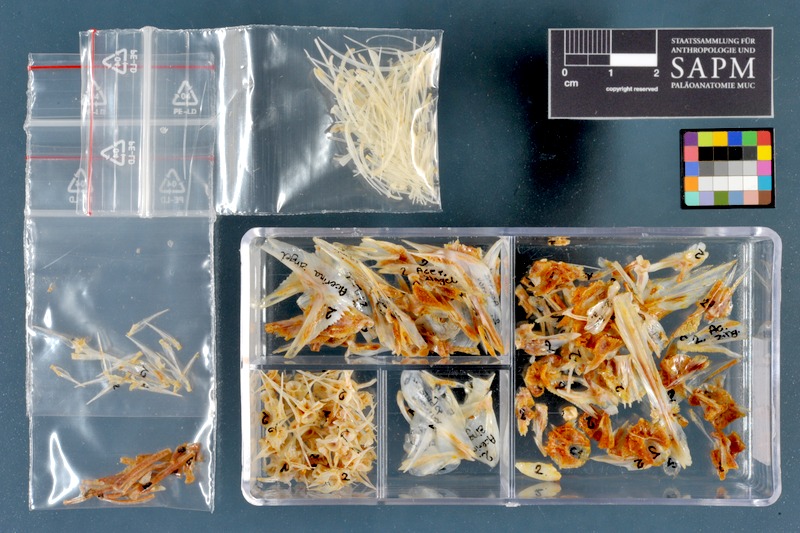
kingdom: Animalia
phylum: Chordata
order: Perciformes
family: Percidae
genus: Zingel
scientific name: Zingel zingel
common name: Zingel
